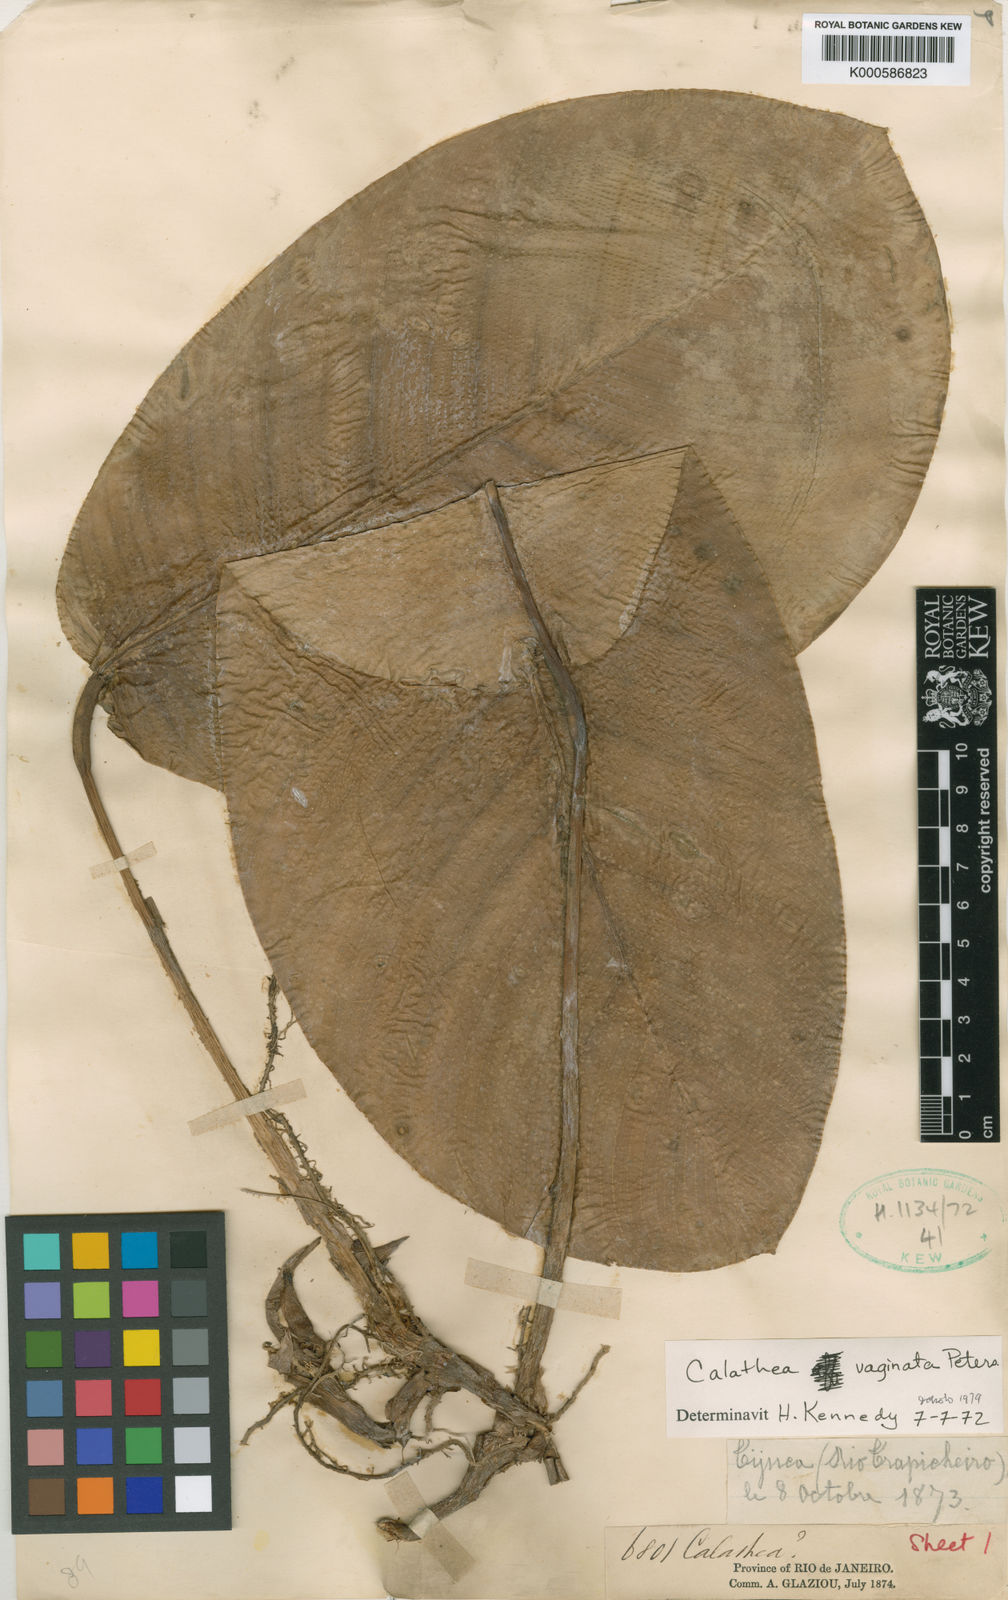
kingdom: Plantae
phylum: Tracheophyta
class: Liliopsida
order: Zingiberales
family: Marantaceae
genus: Goeppertia
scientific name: Goeppertia vaginata
